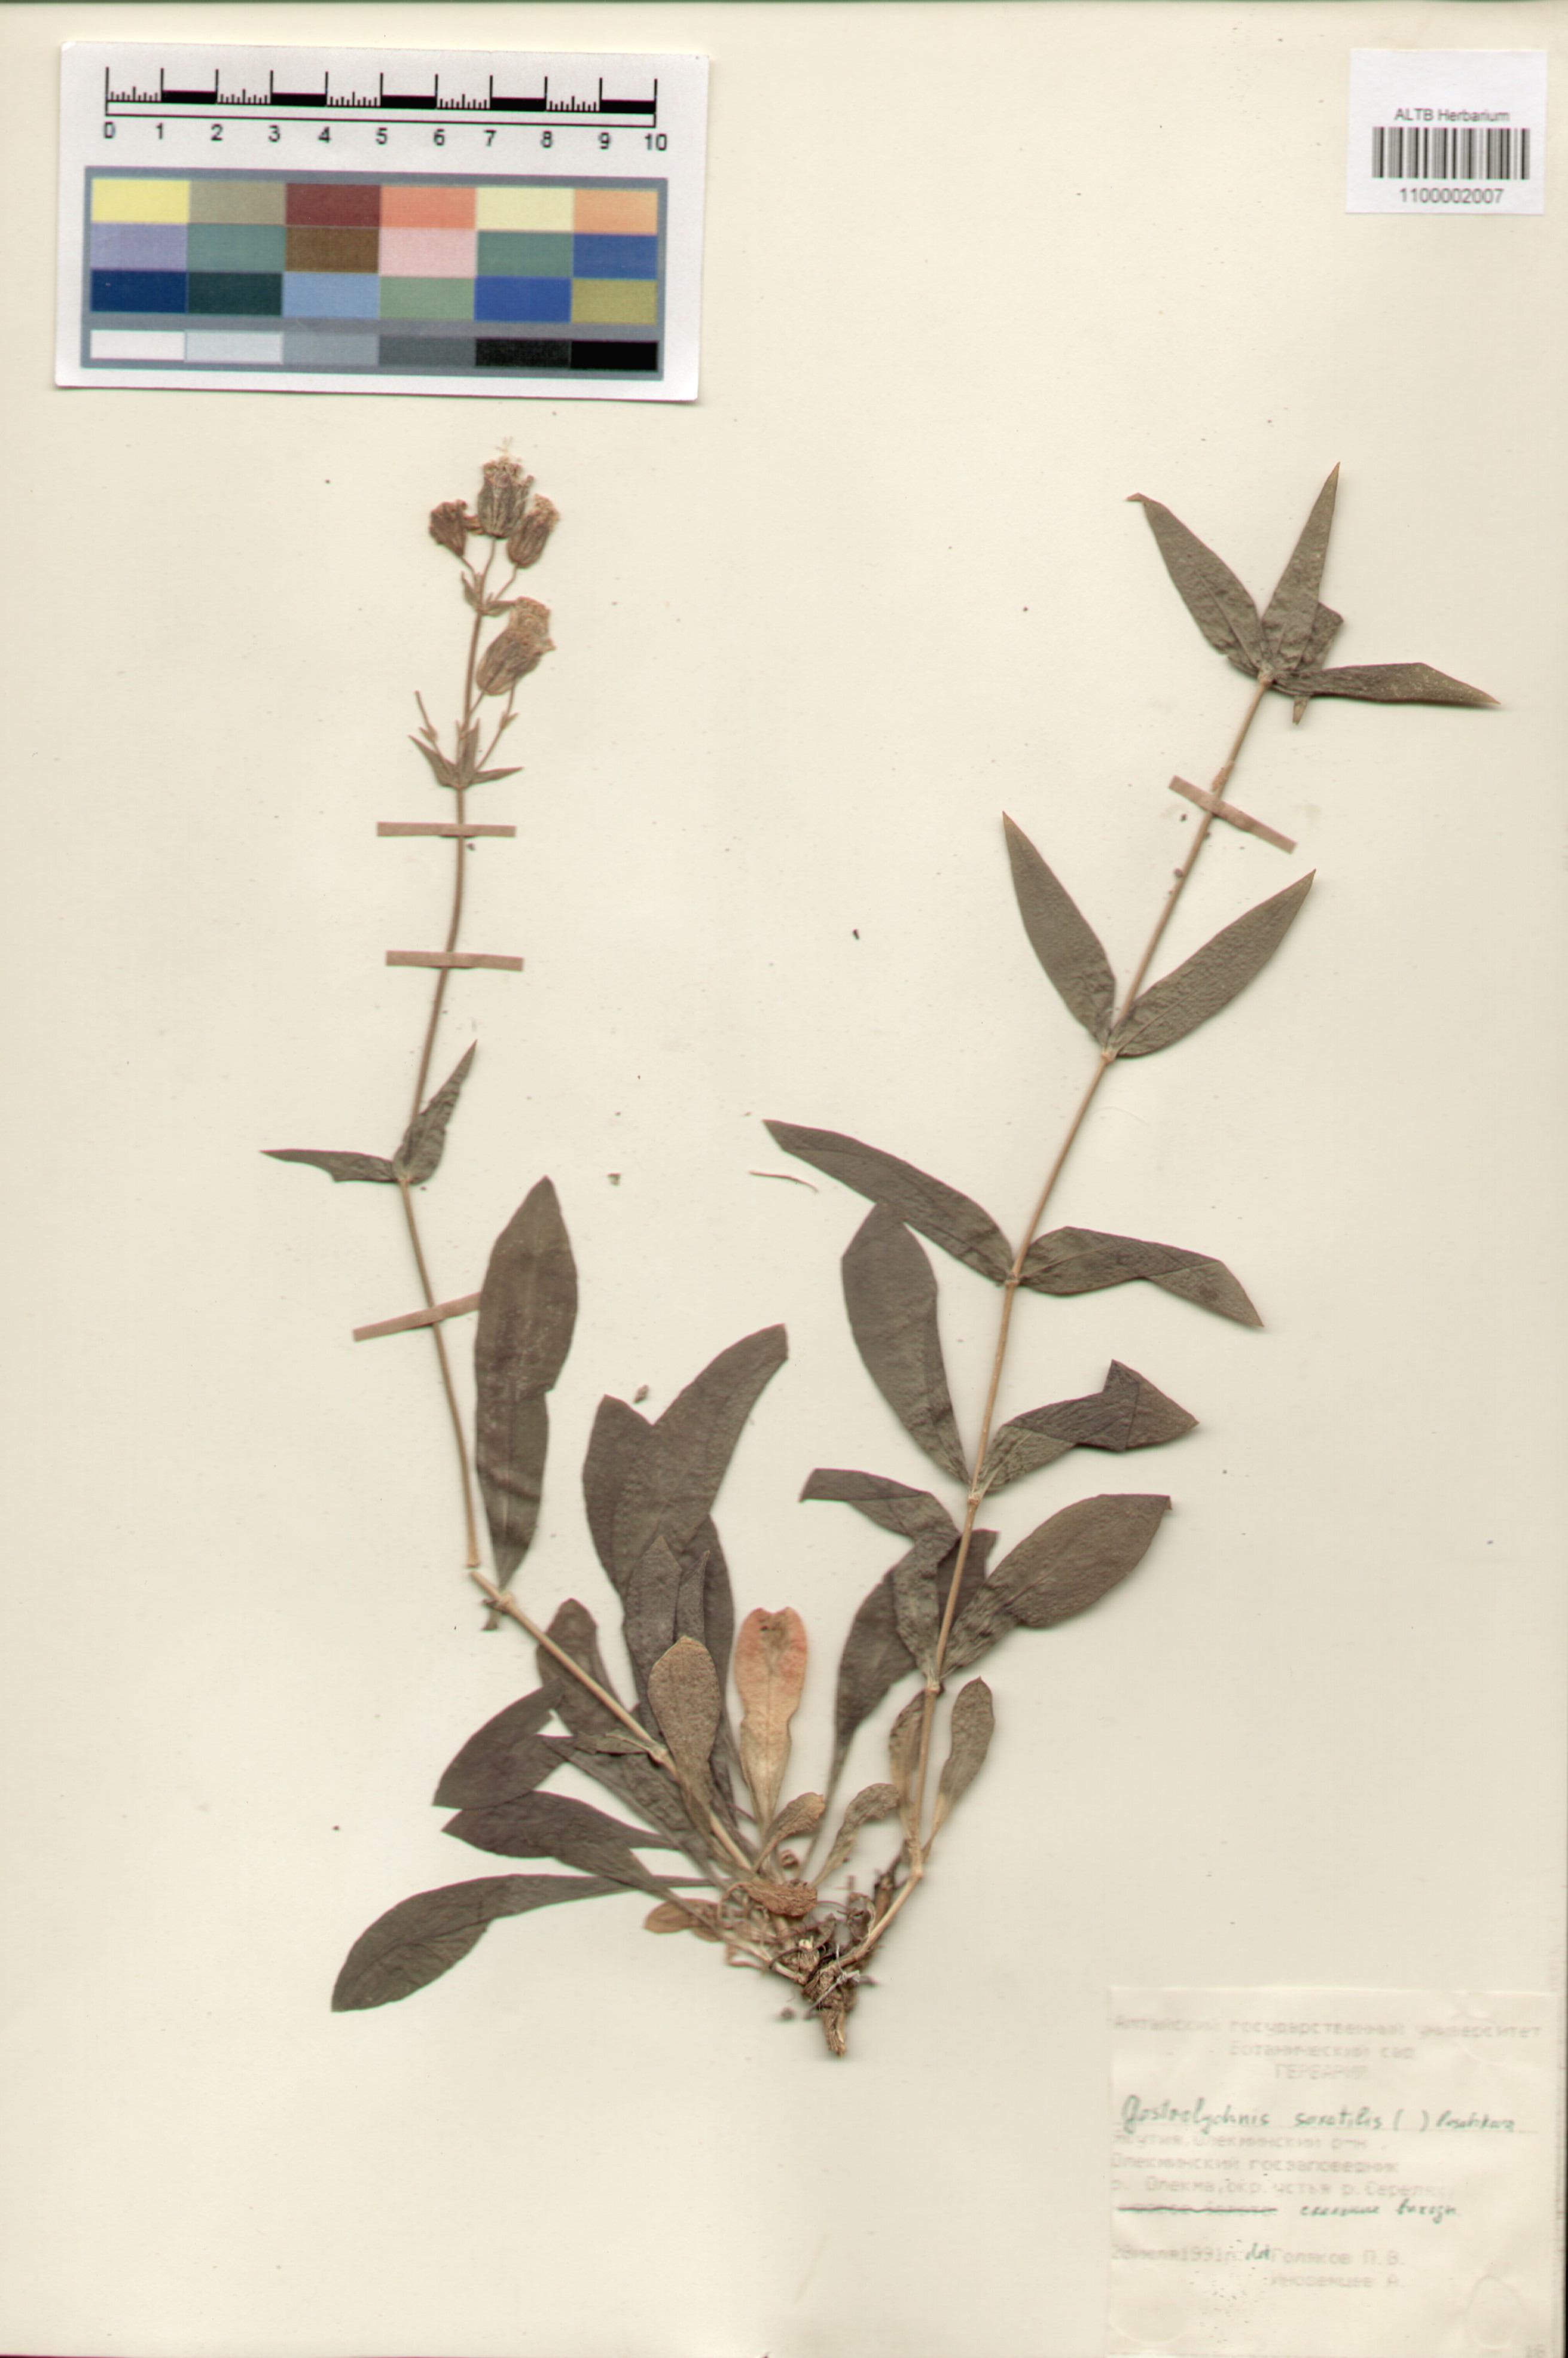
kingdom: Plantae
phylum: Tracheophyta
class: Magnoliopsida
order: Caryophyllales
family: Caryophyllaceae
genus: Silene
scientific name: Silene tolmatchevii
